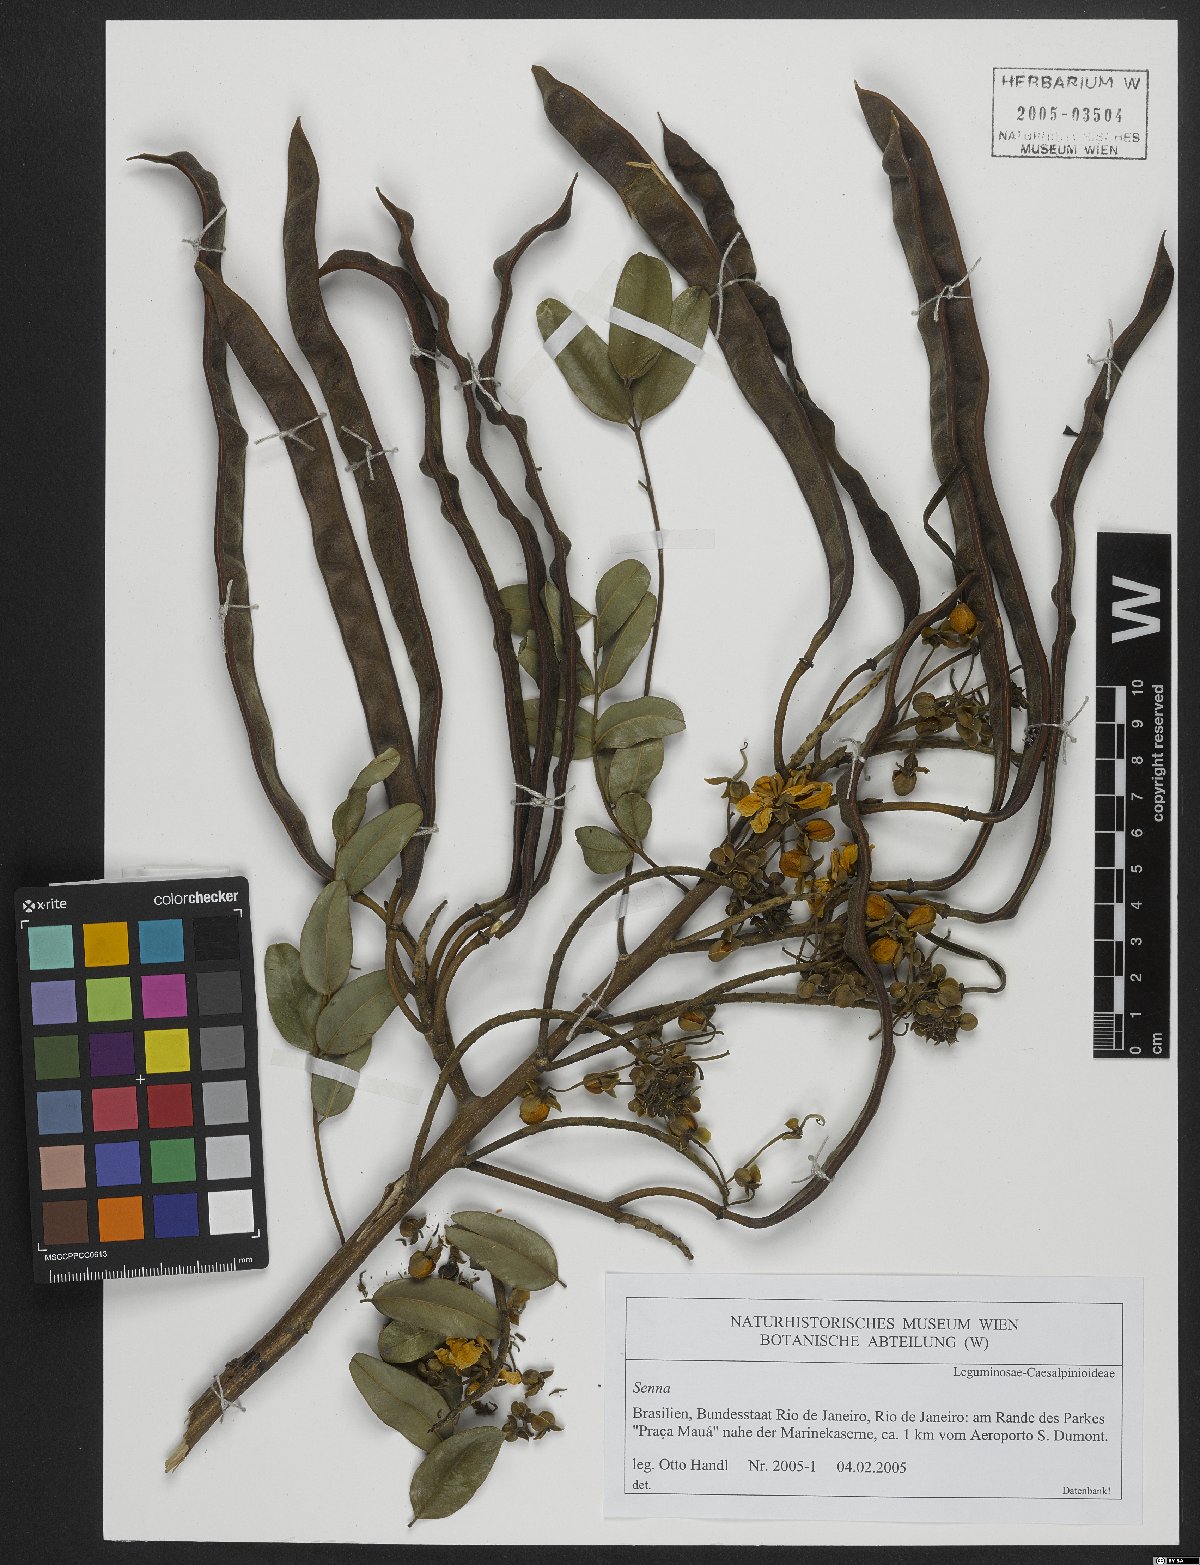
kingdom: Plantae
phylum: Tracheophyta
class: Magnoliopsida
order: Fabales
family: Fabaceae
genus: Senna
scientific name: Senna
